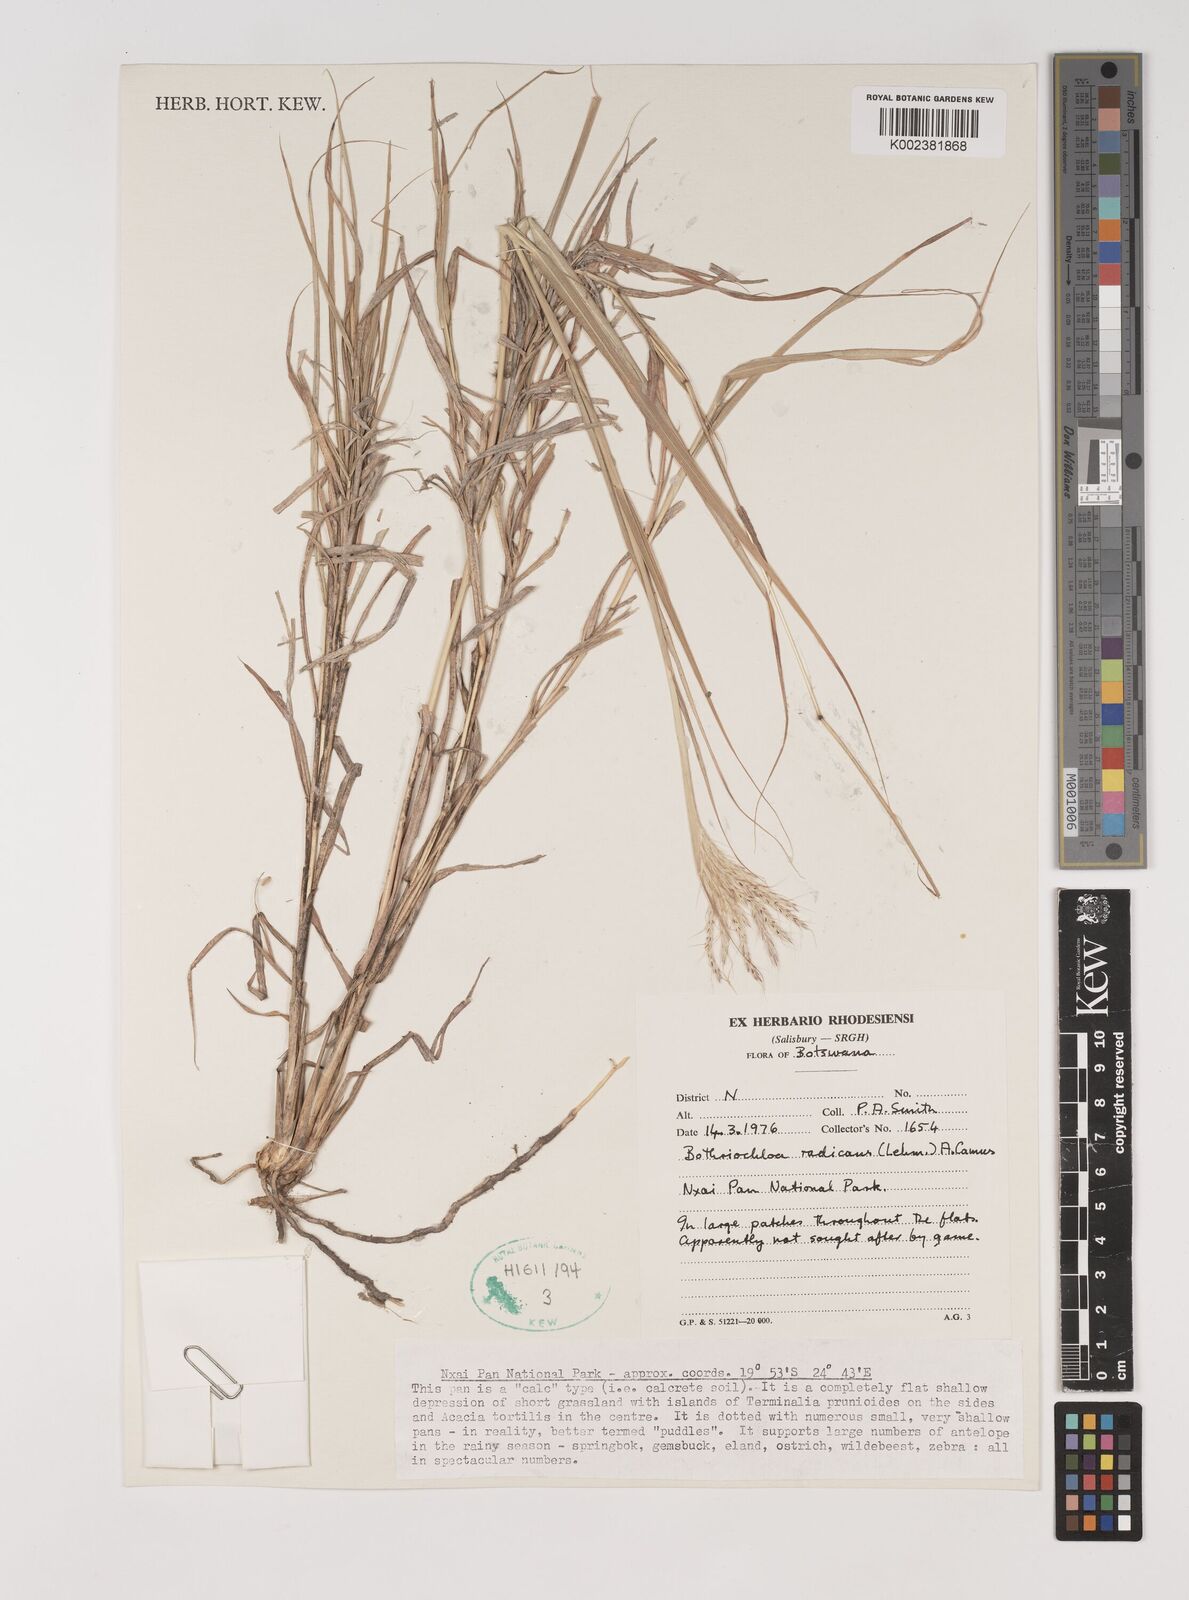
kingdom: Plantae
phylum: Tracheophyta
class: Liliopsida
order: Poales
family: Poaceae
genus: Bothriochloa
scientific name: Bothriochloa radicans
